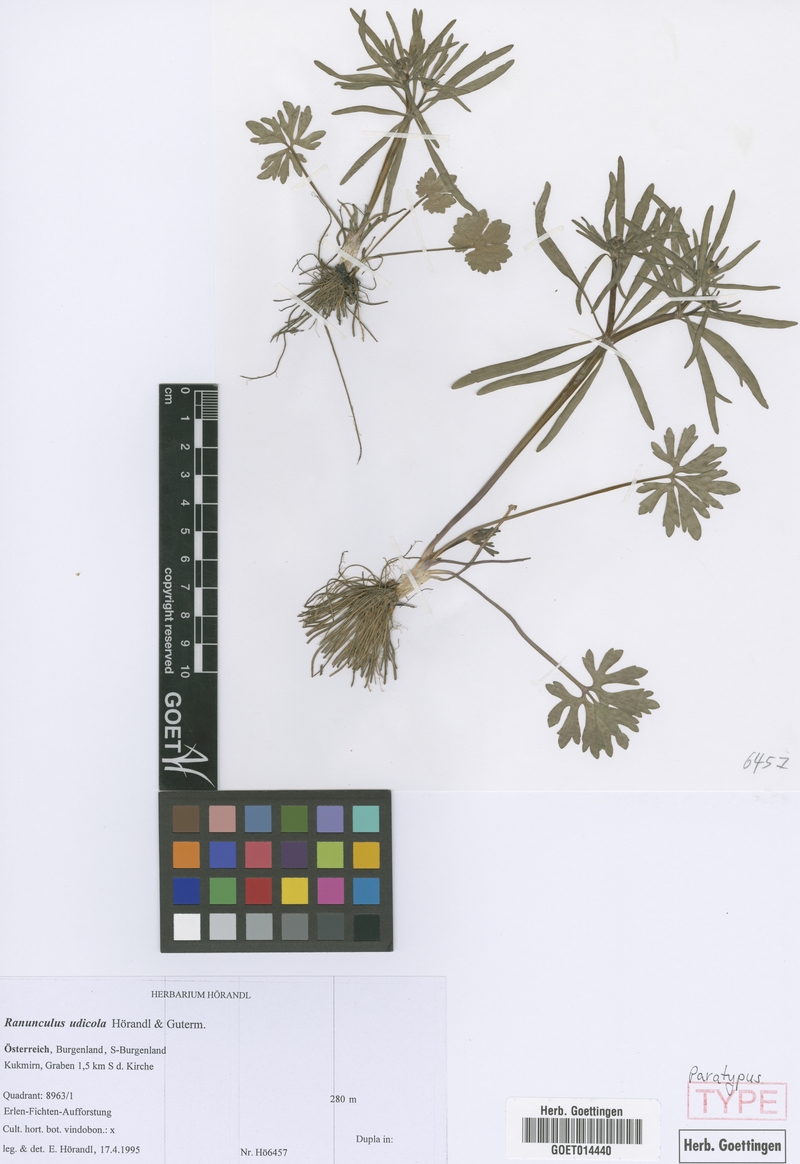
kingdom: Plantae
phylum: Tracheophyta
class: Magnoliopsida
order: Ranunculales
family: Ranunculaceae
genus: Ranunculus
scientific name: Ranunculus udicola
